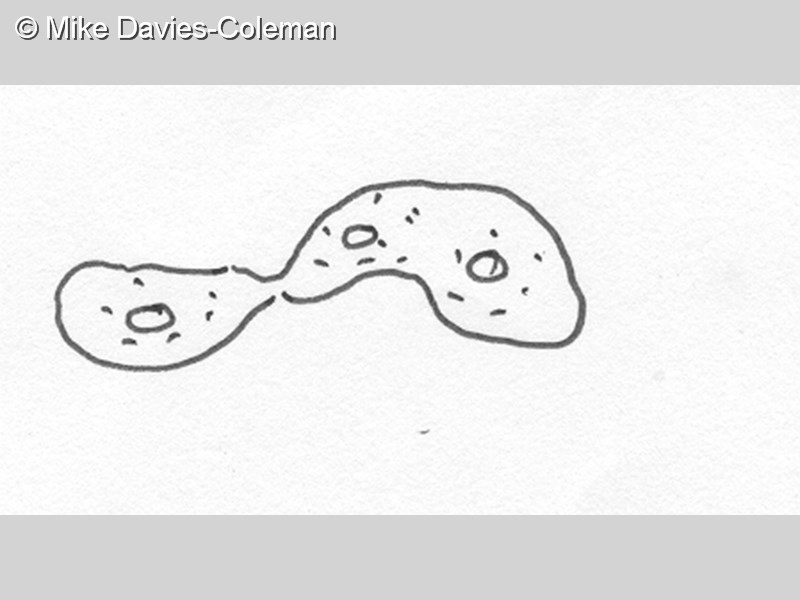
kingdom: Animalia
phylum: Chordata
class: Ascidiacea
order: Aplousobranchia
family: Didemnidae
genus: Didemnum
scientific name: Didemnum molle
